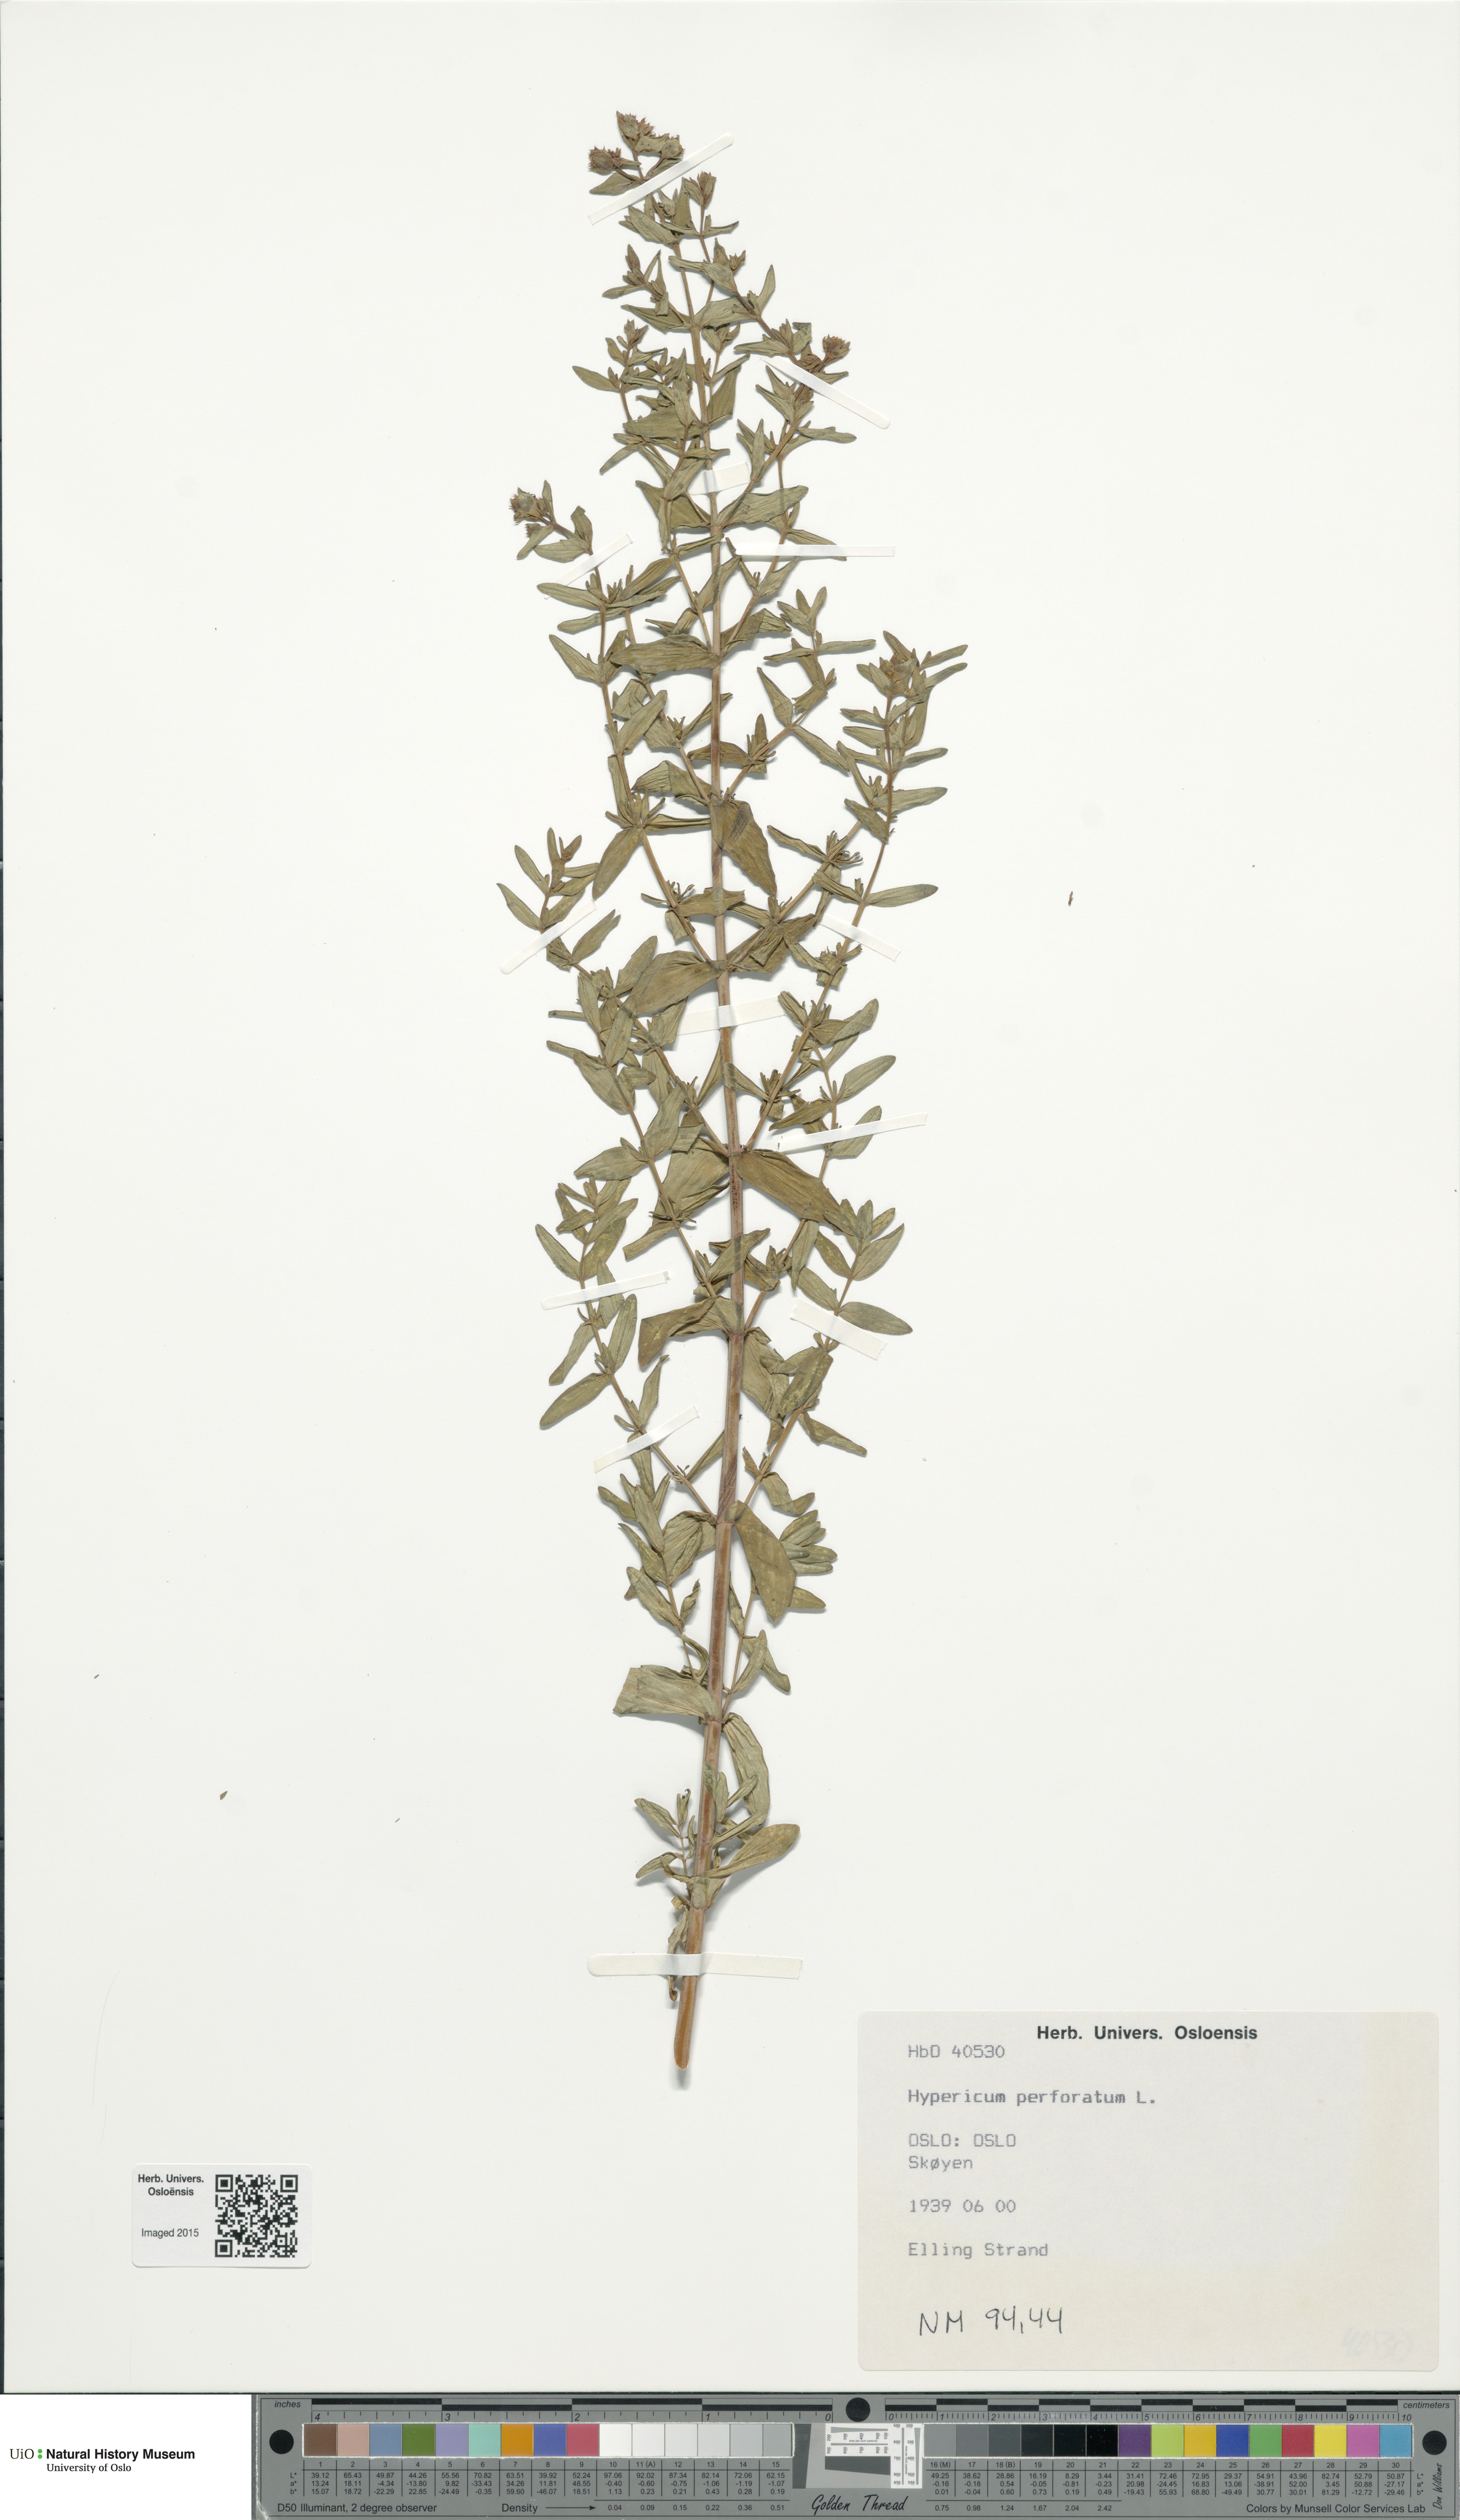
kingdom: Plantae
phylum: Tracheophyta
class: Magnoliopsida
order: Malpighiales
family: Hypericaceae
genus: Hypericum
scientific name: Hypericum perforatum
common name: Common st. johnswort
